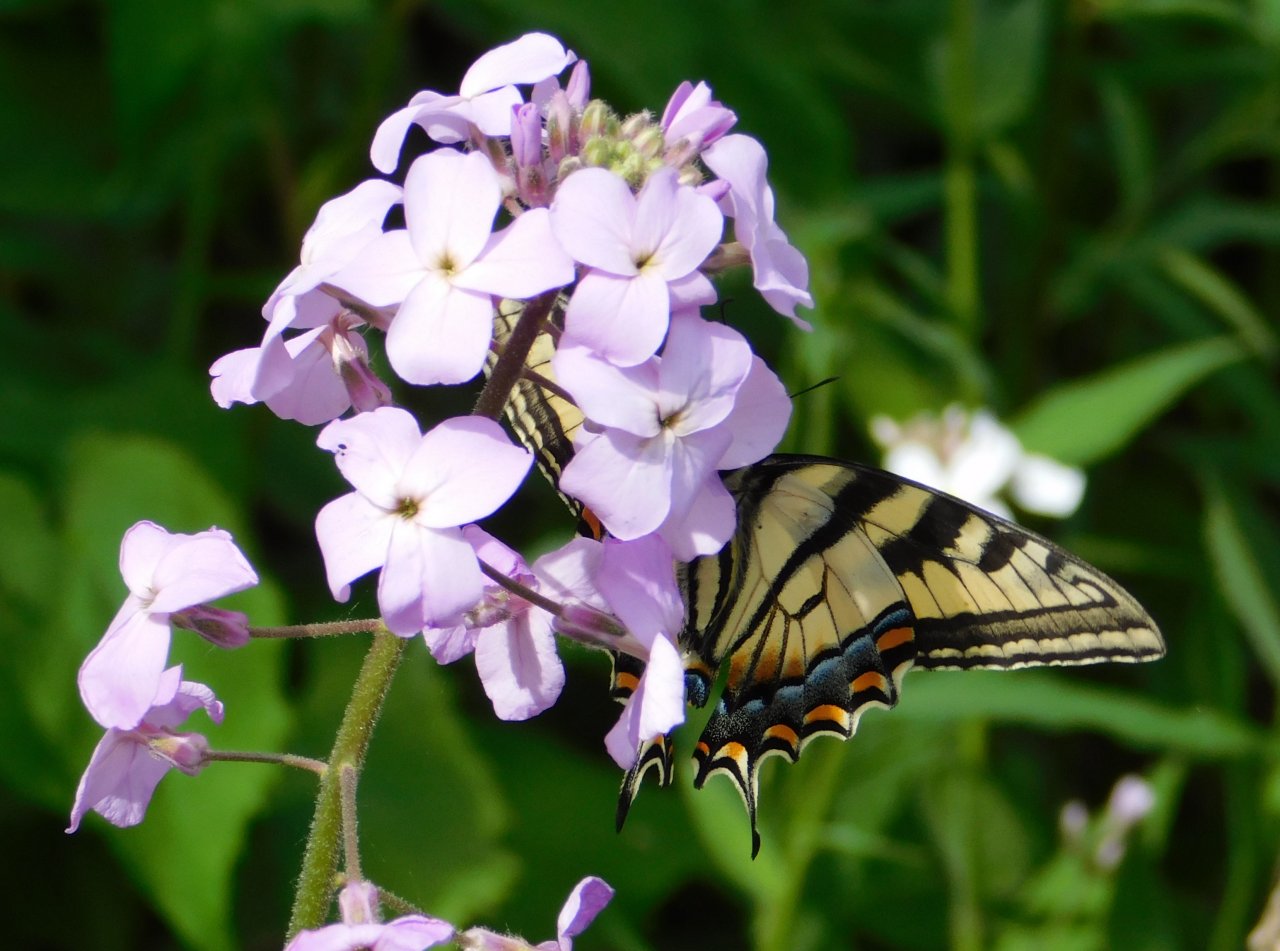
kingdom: Animalia
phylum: Arthropoda
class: Insecta
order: Lepidoptera
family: Papilionidae
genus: Pterourus
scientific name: Pterourus canadensis
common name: Canadian Tiger Swallowtail
